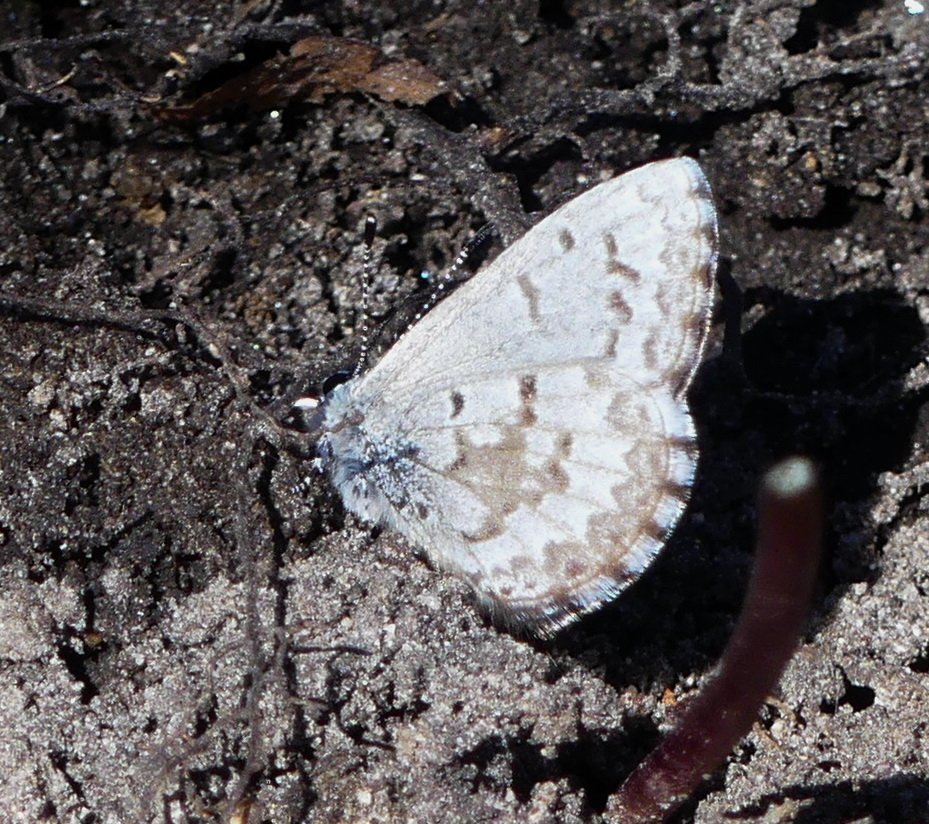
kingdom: Animalia
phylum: Arthropoda
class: Insecta
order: Lepidoptera
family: Lycaenidae
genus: Celastrina
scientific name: Celastrina lucia
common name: Northern Spring Azure
